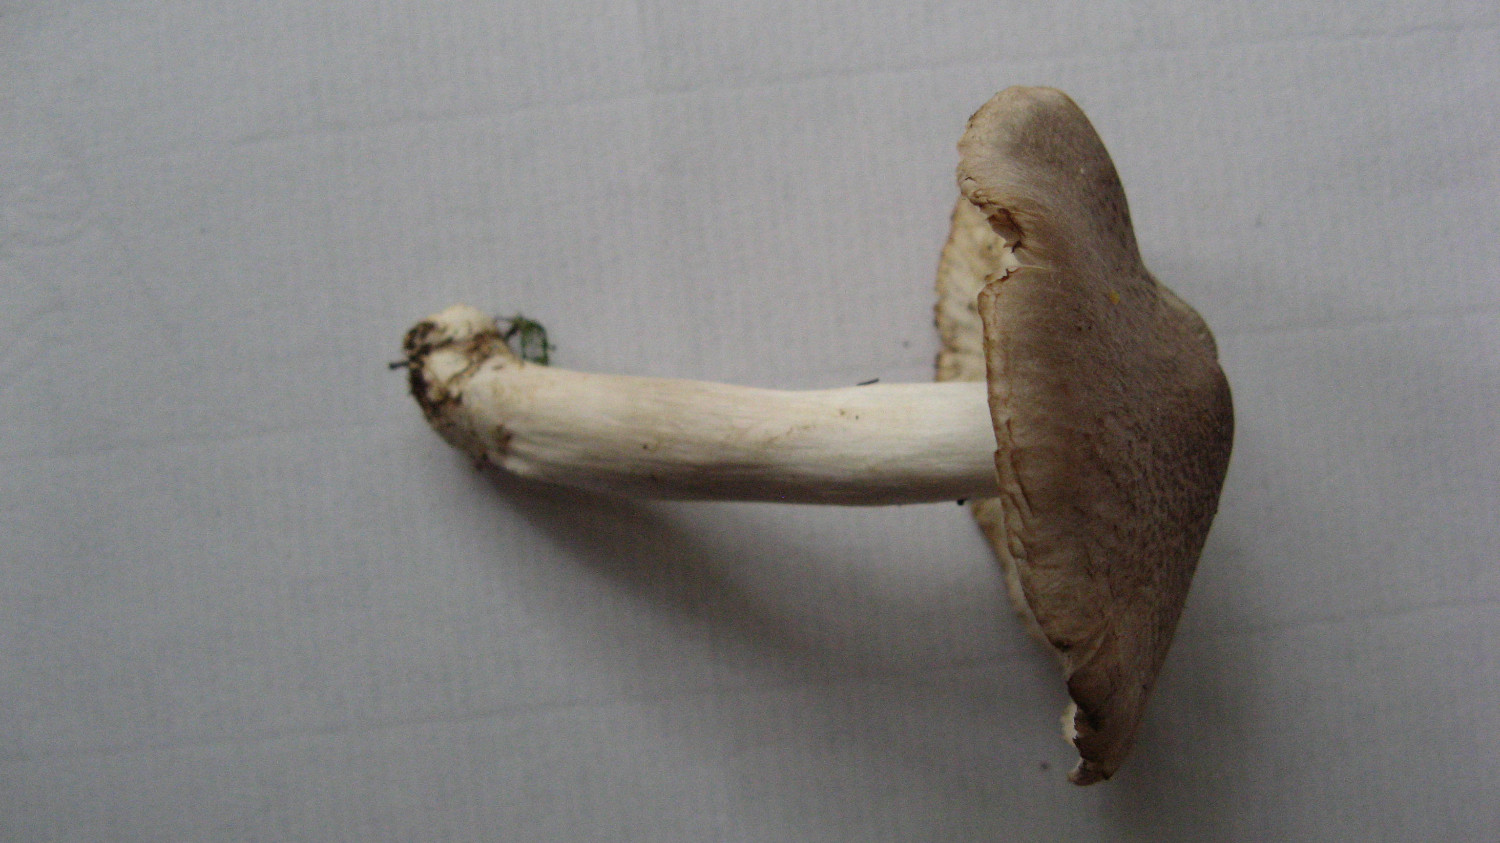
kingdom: Fungi
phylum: Basidiomycota
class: Agaricomycetes
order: Agaricales
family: Tricholomataceae
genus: Tricholoma
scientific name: Tricholoma terreum
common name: jordfarvet ridderhat
